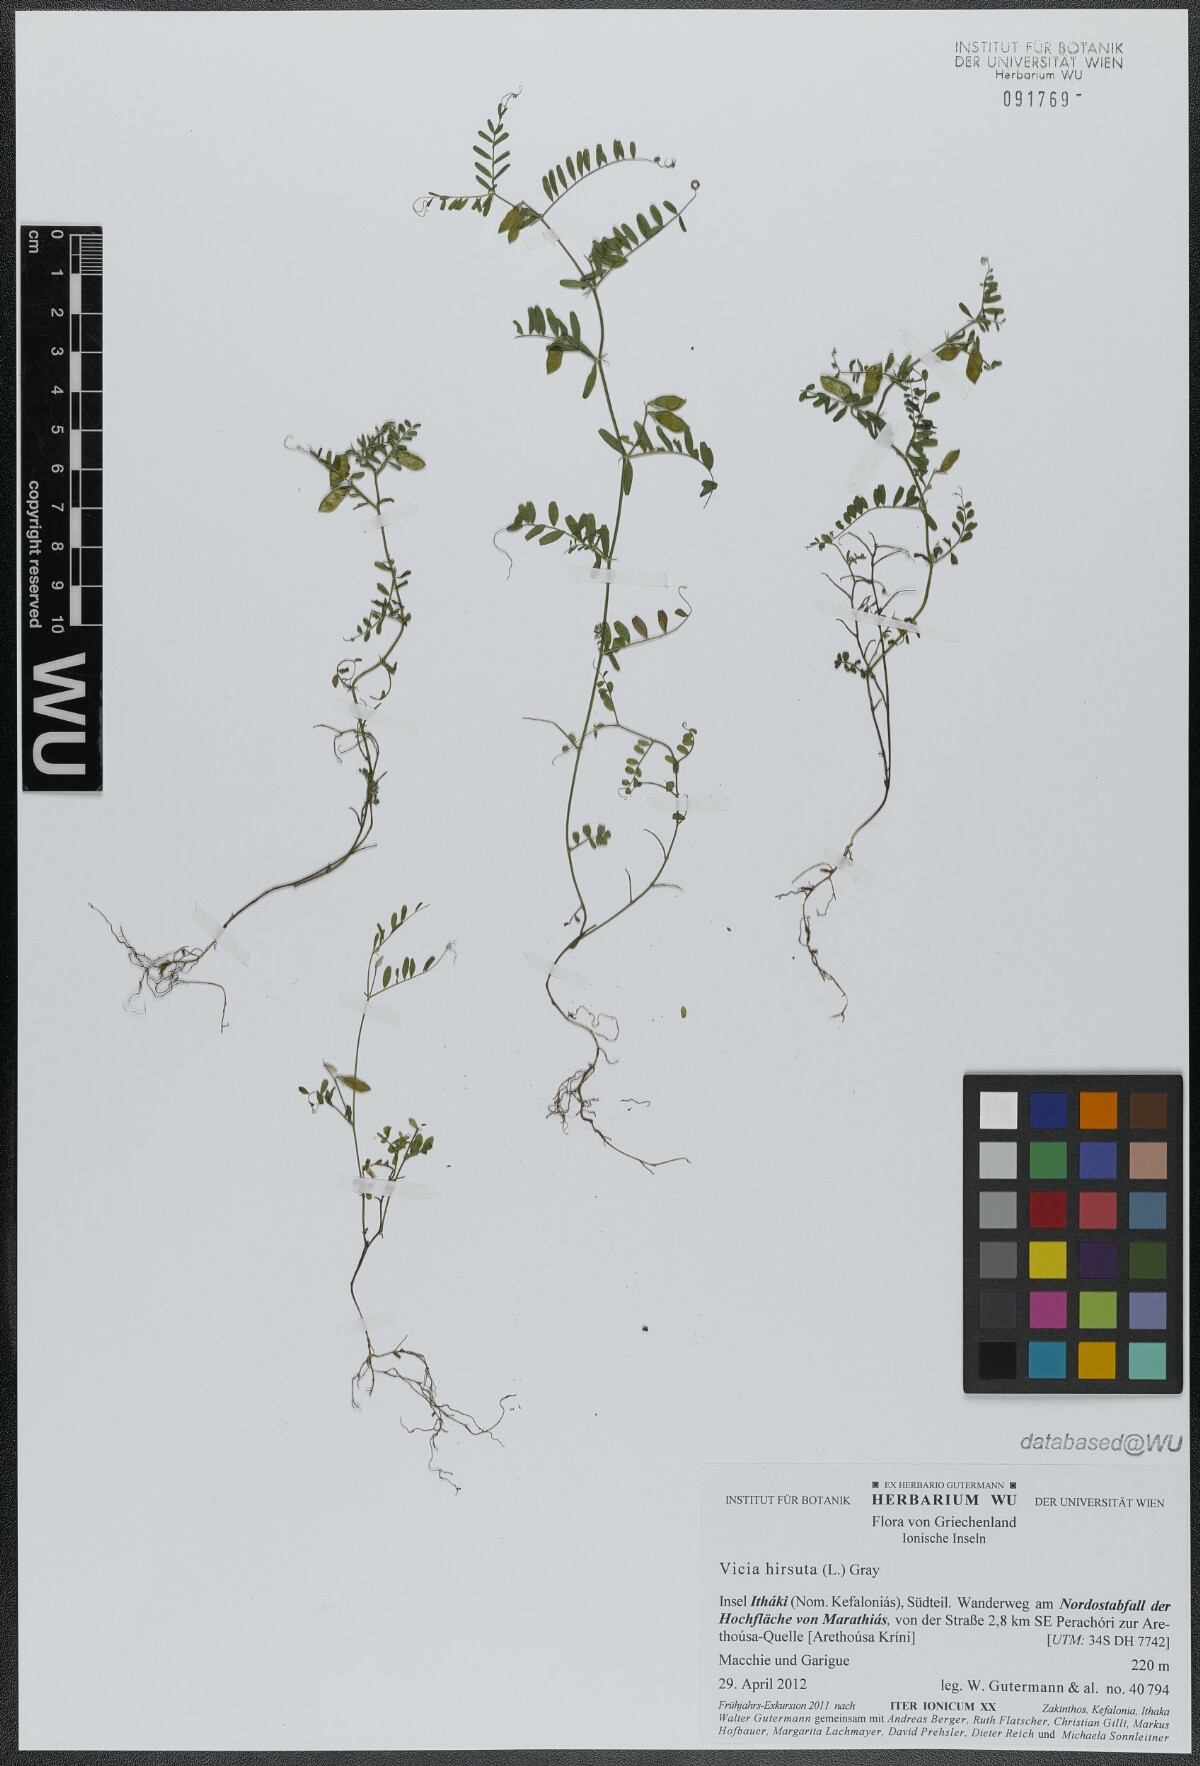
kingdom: Plantae
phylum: Tracheophyta
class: Magnoliopsida
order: Fabales
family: Fabaceae
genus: Vicia
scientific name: Vicia hirsuta
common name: Tiny vetch
